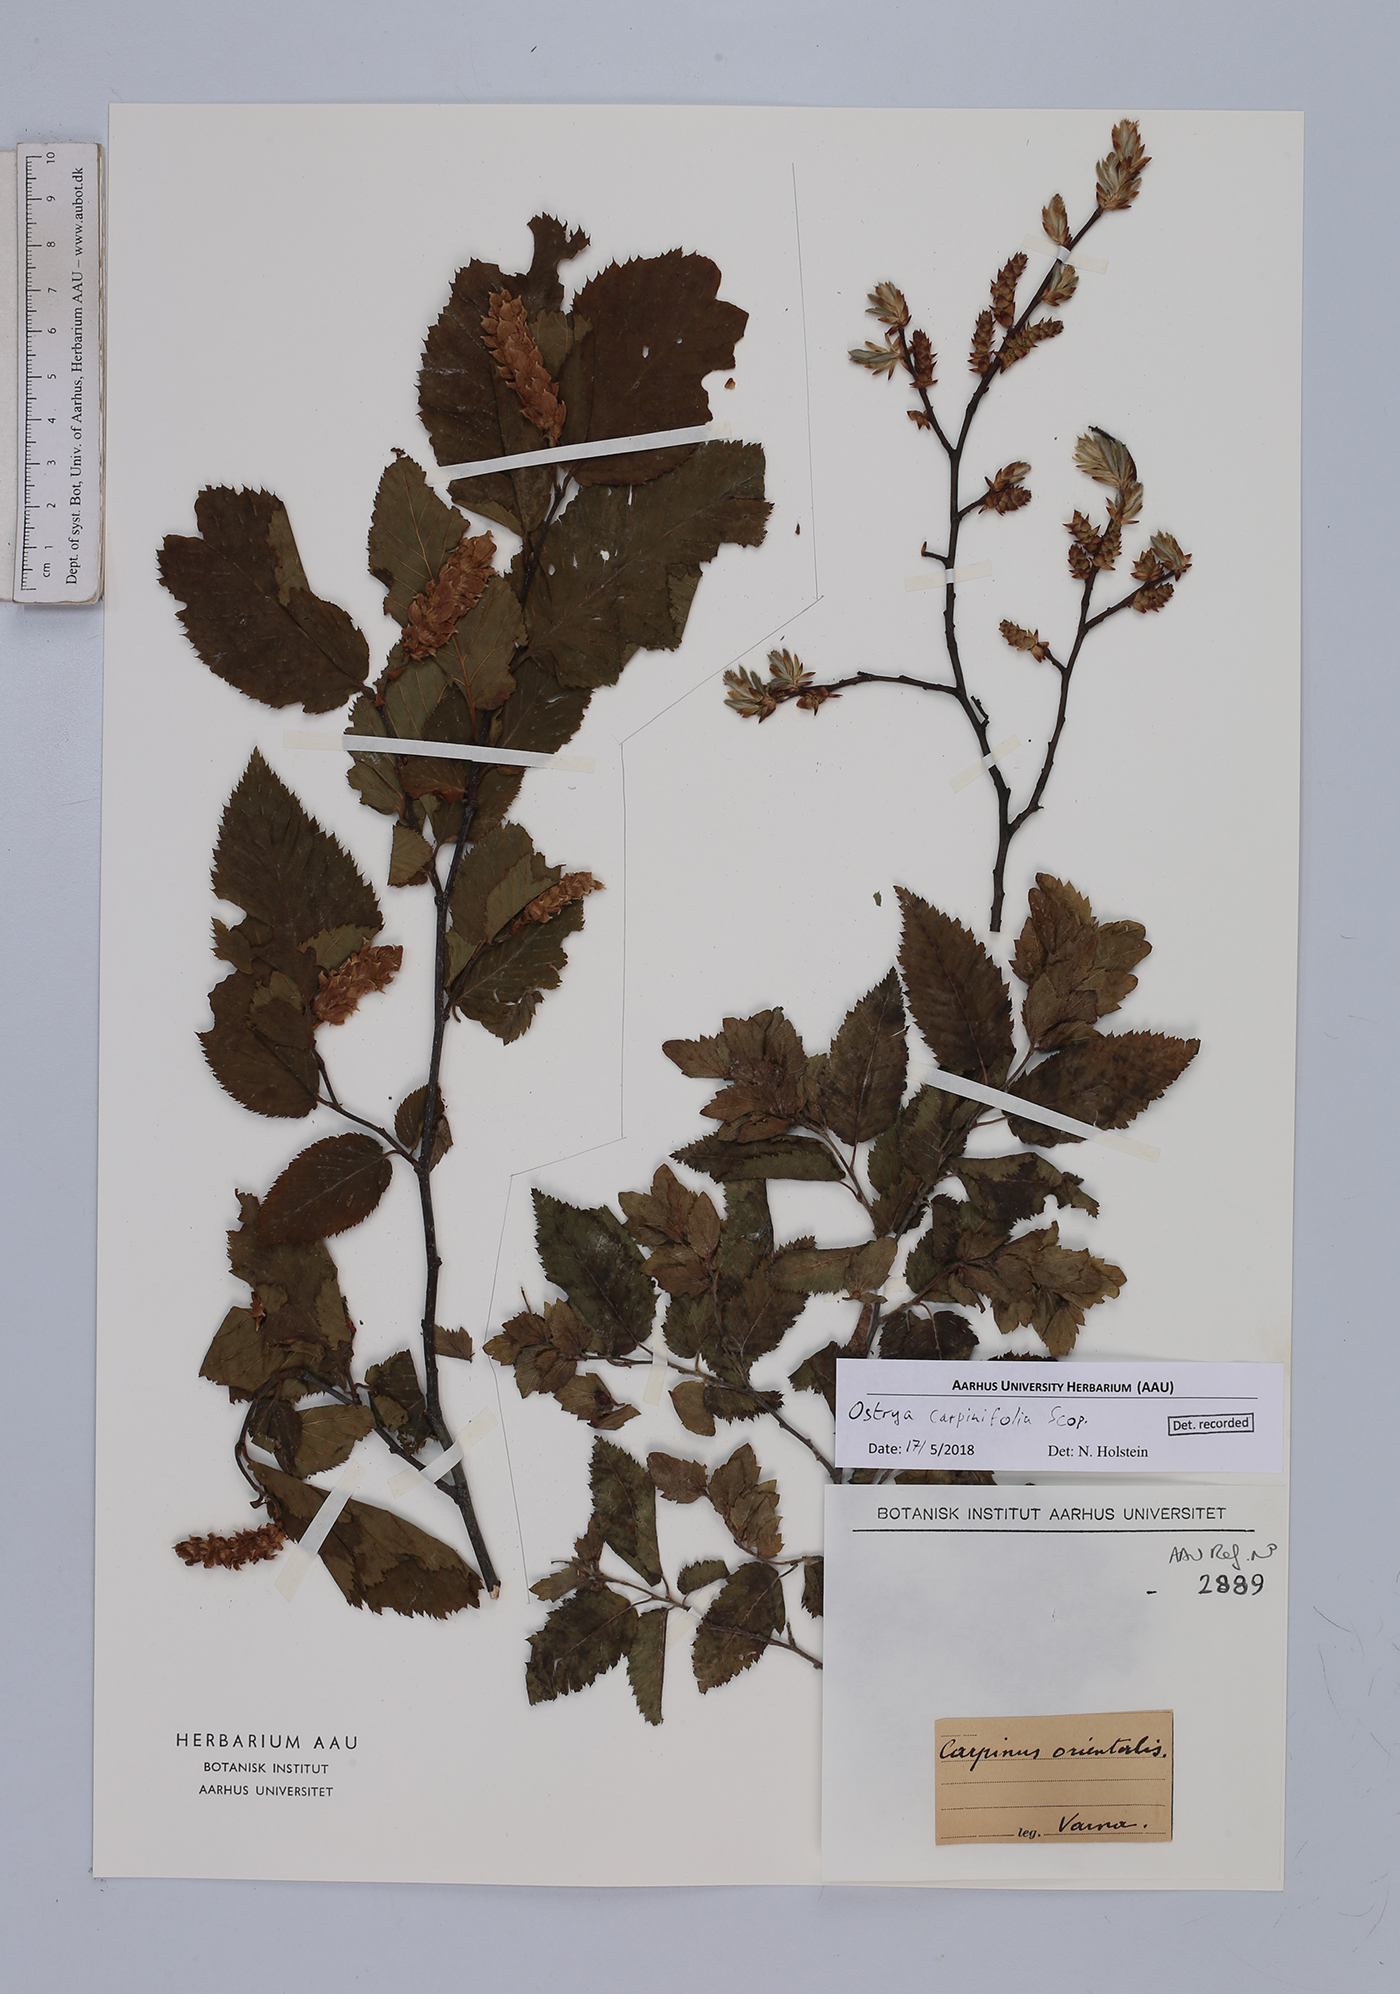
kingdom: Plantae
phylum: Tracheophyta
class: Magnoliopsida
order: Fagales
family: Betulaceae
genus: Ostrya
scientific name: Ostrya carpinifolia
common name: European hop-hornbeam
